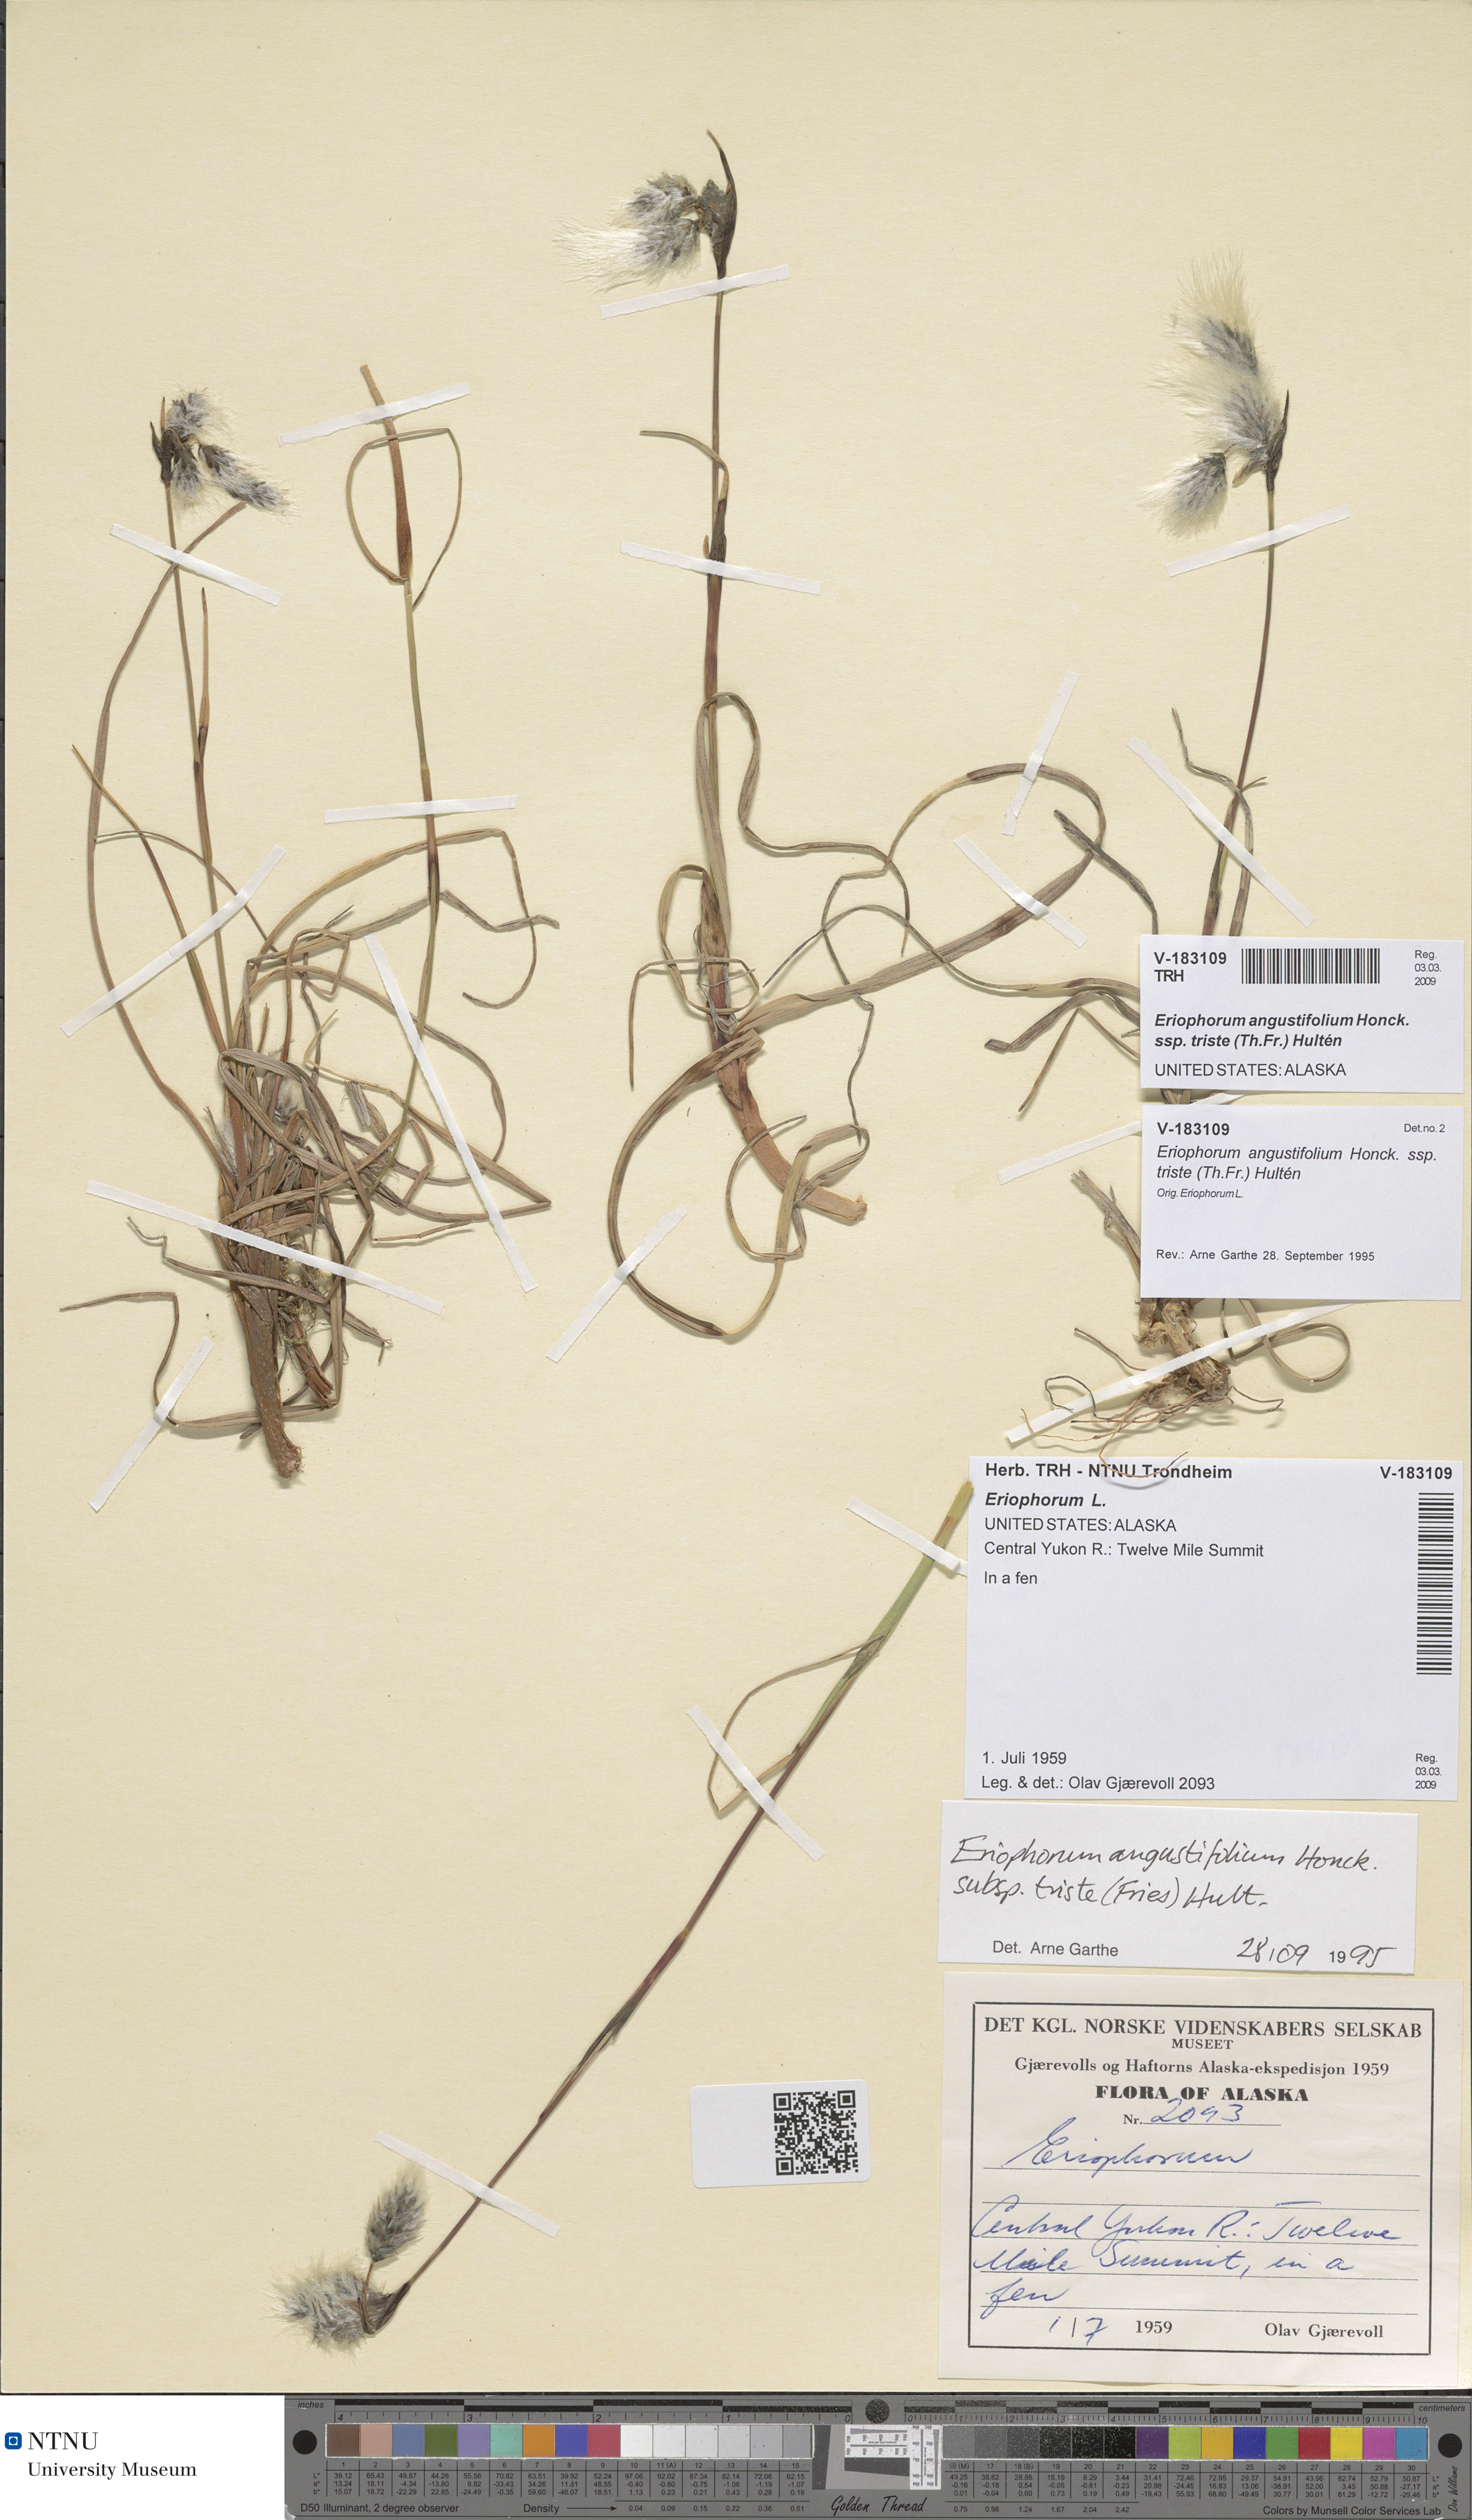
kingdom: Plantae
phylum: Tracheophyta
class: Liliopsida
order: Poales
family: Cyperaceae
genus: Eriophorum
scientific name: Eriophorum triste
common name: Tall cottongrass
